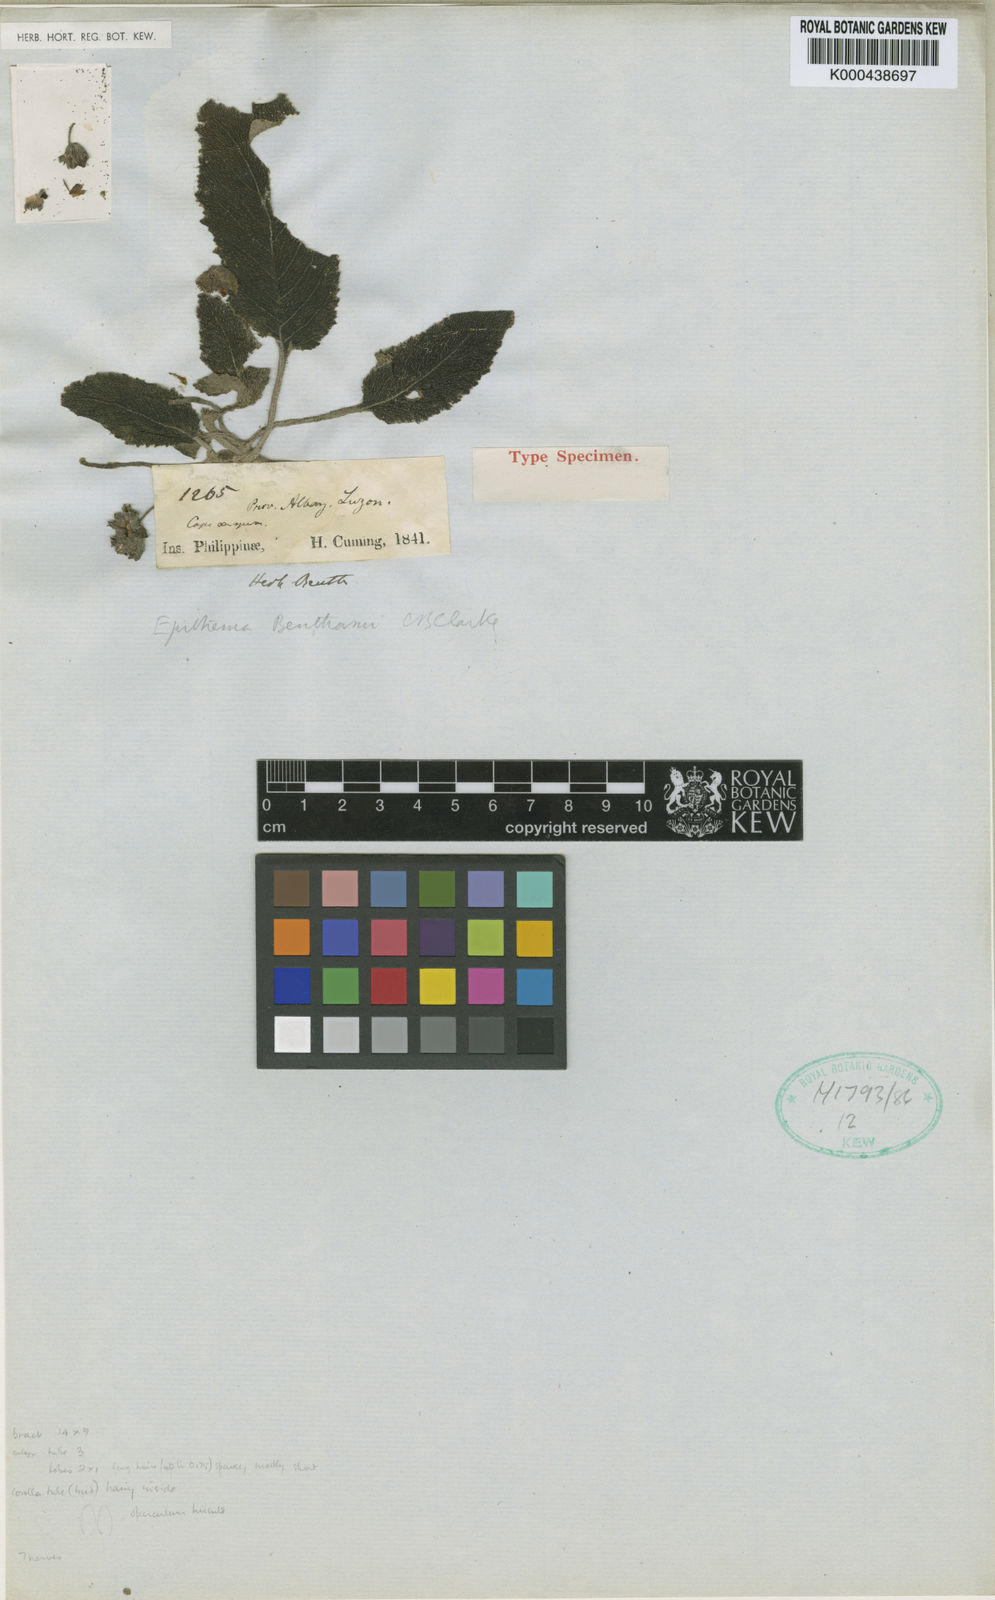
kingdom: Plantae
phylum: Tracheophyta
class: Magnoliopsida
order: Lamiales
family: Gesneriaceae
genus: Epithema
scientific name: Epithema benthamii
